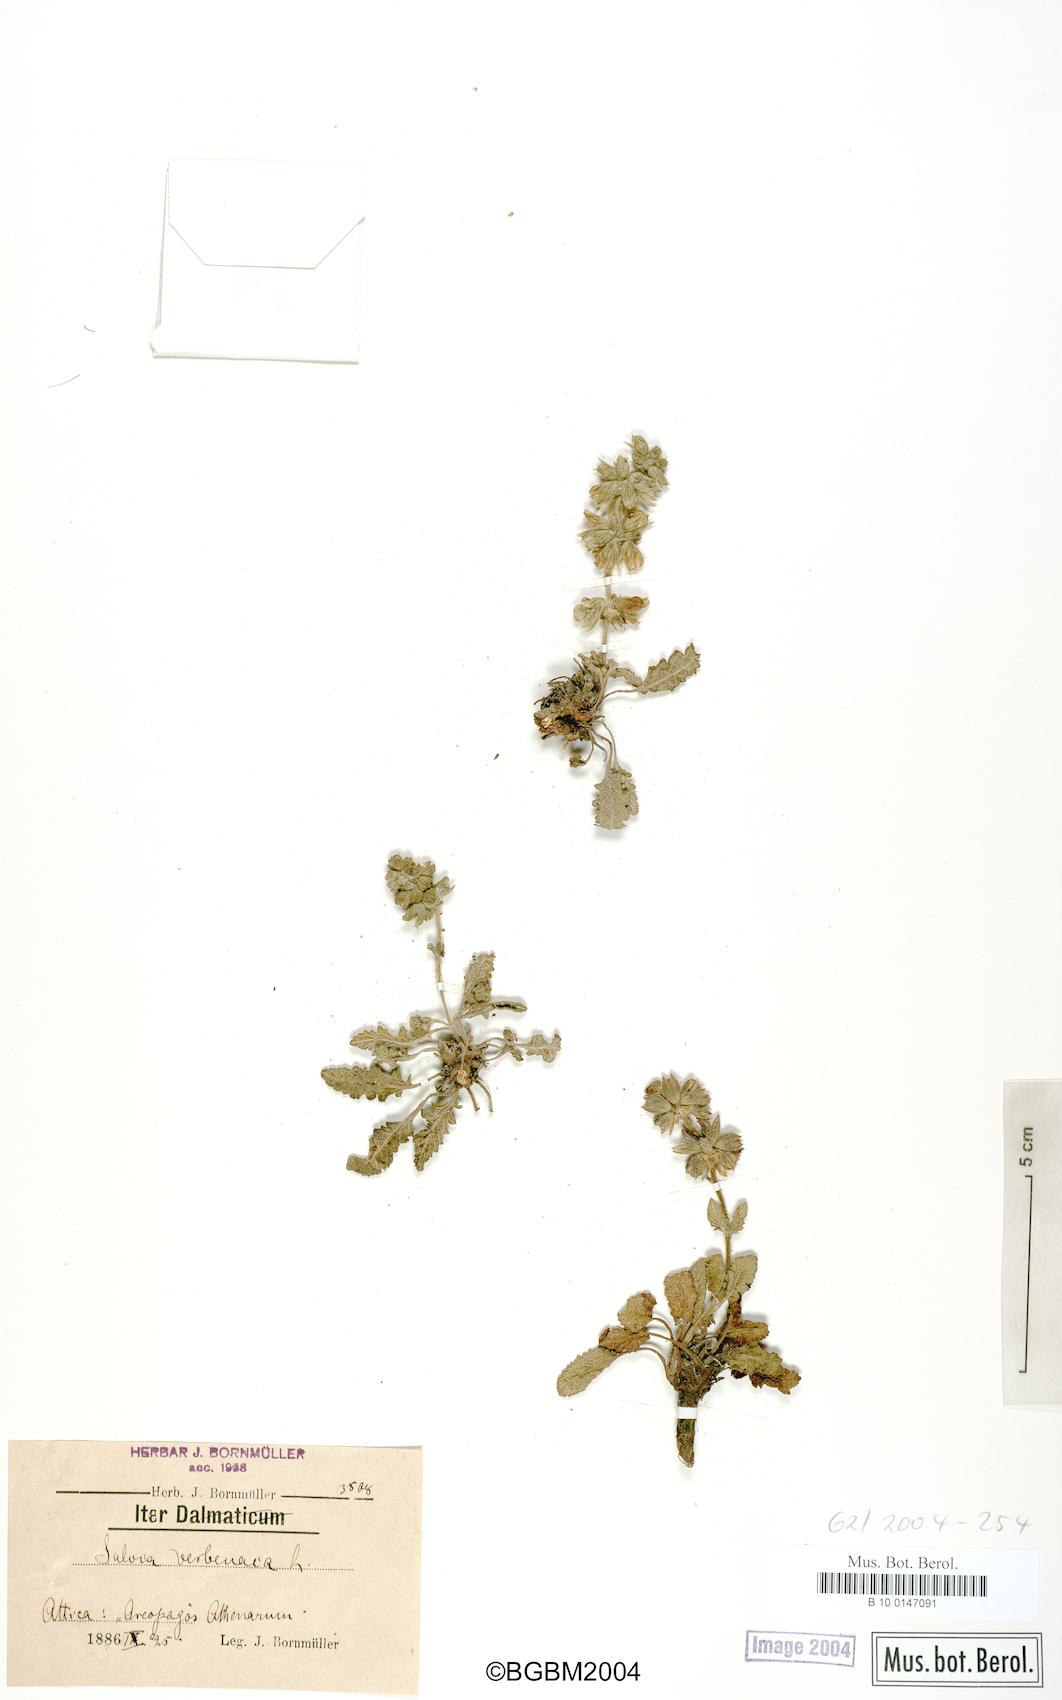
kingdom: Plantae
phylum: Tracheophyta
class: Magnoliopsida
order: Lamiales
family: Lamiaceae
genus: Salvia
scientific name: Salvia verbenaca
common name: Wild clary
